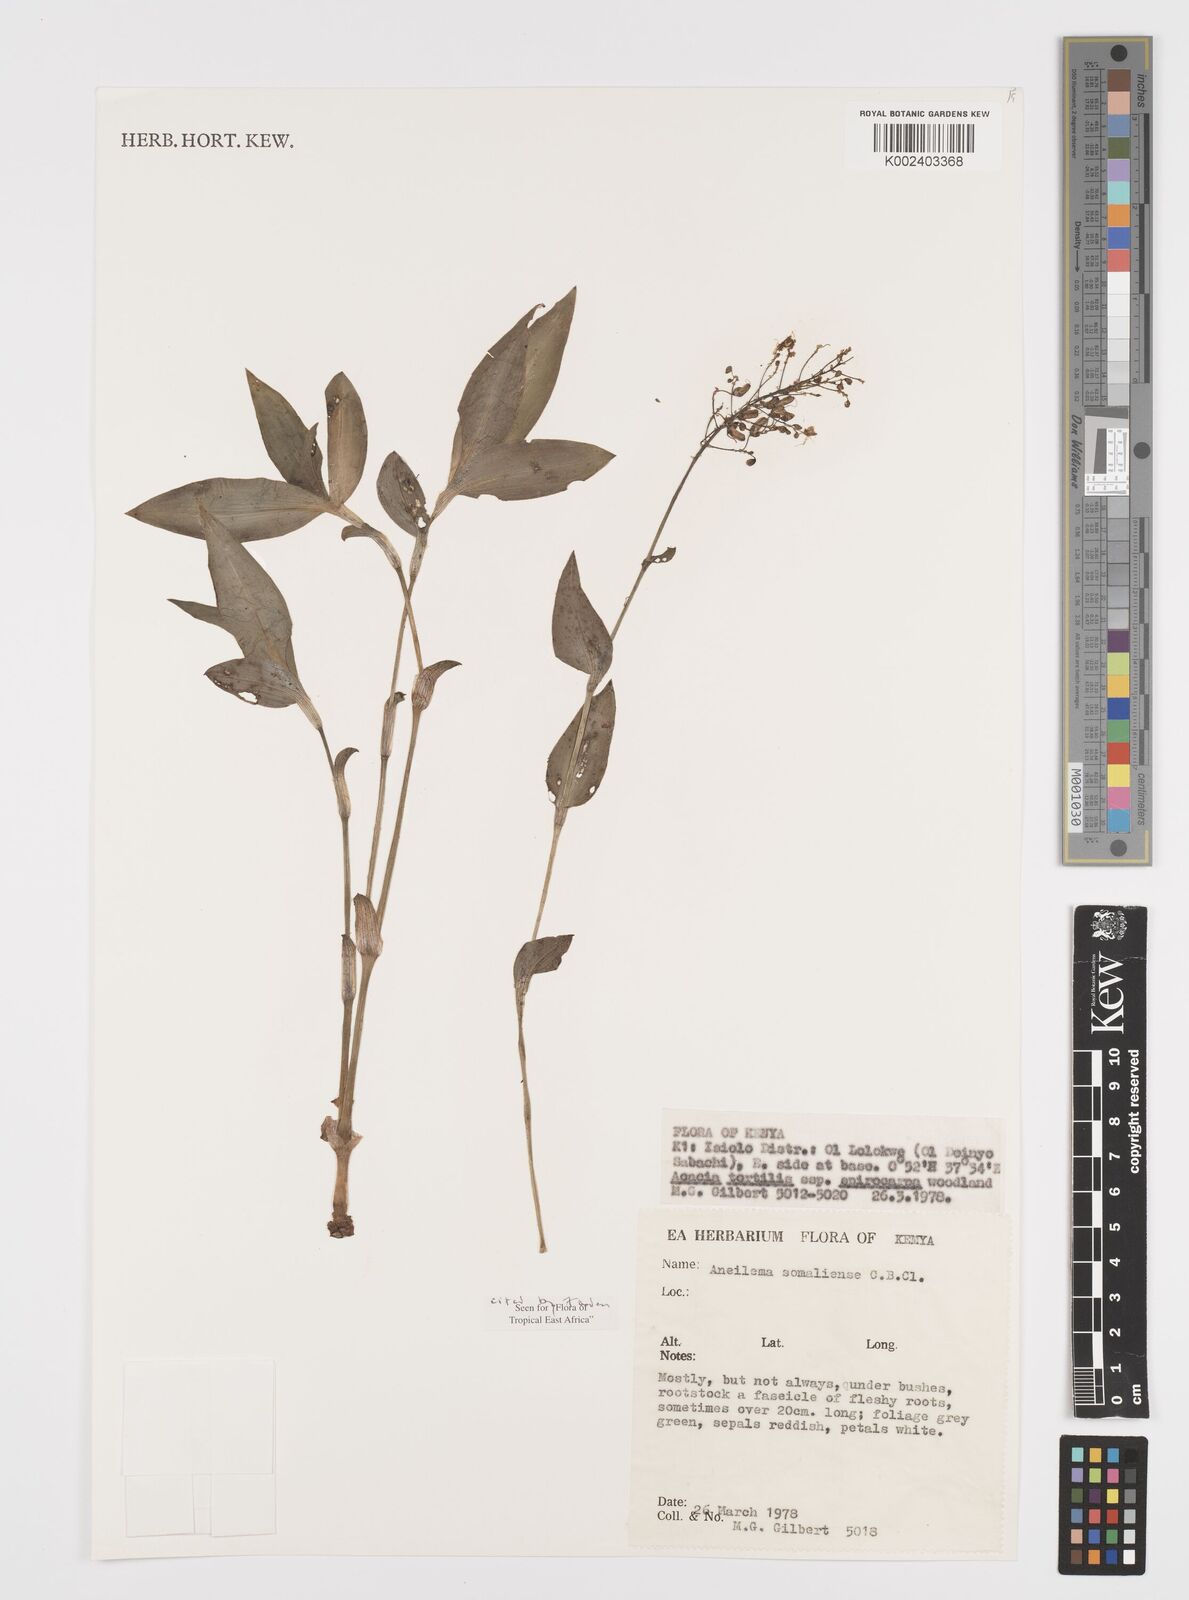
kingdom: Plantae
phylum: Tracheophyta
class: Liliopsida
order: Commelinales
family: Commelinaceae
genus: Aneilema
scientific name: Aneilema somaliense
